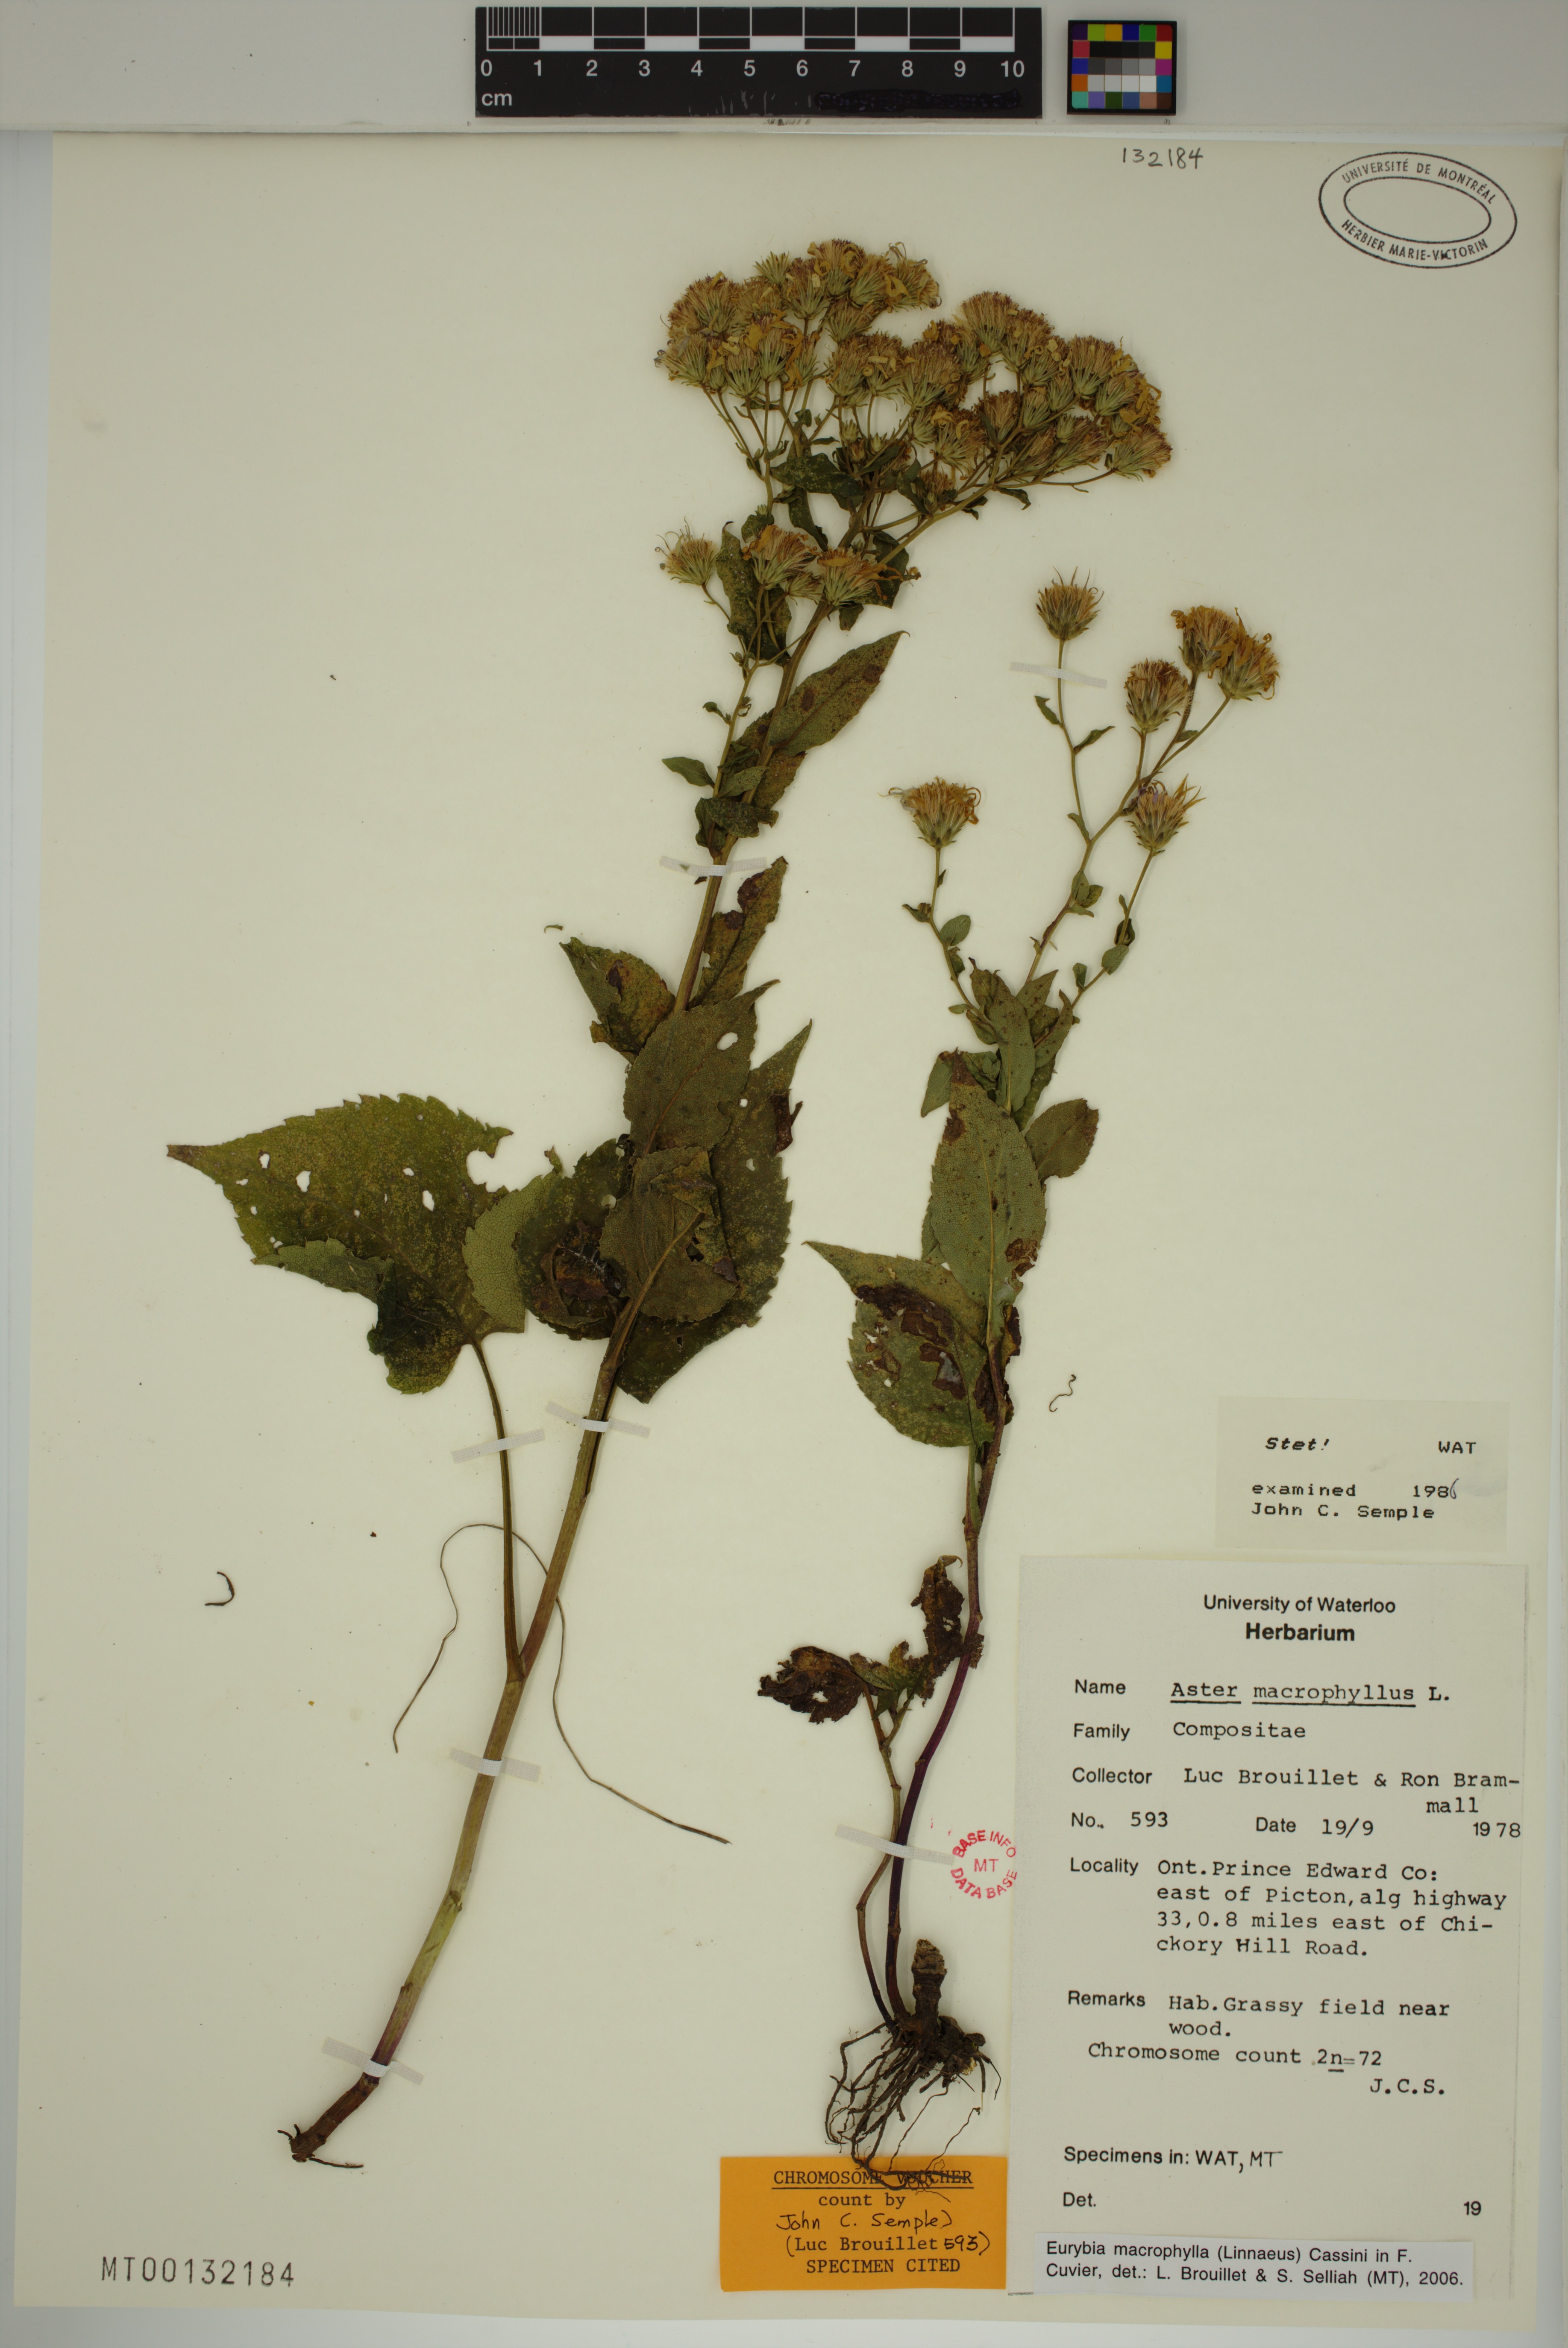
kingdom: Plantae
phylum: Tracheophyta
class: Magnoliopsida
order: Asterales
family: Asteraceae
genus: Eurybia
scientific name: Eurybia macrophylla
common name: Big-leaved aster
